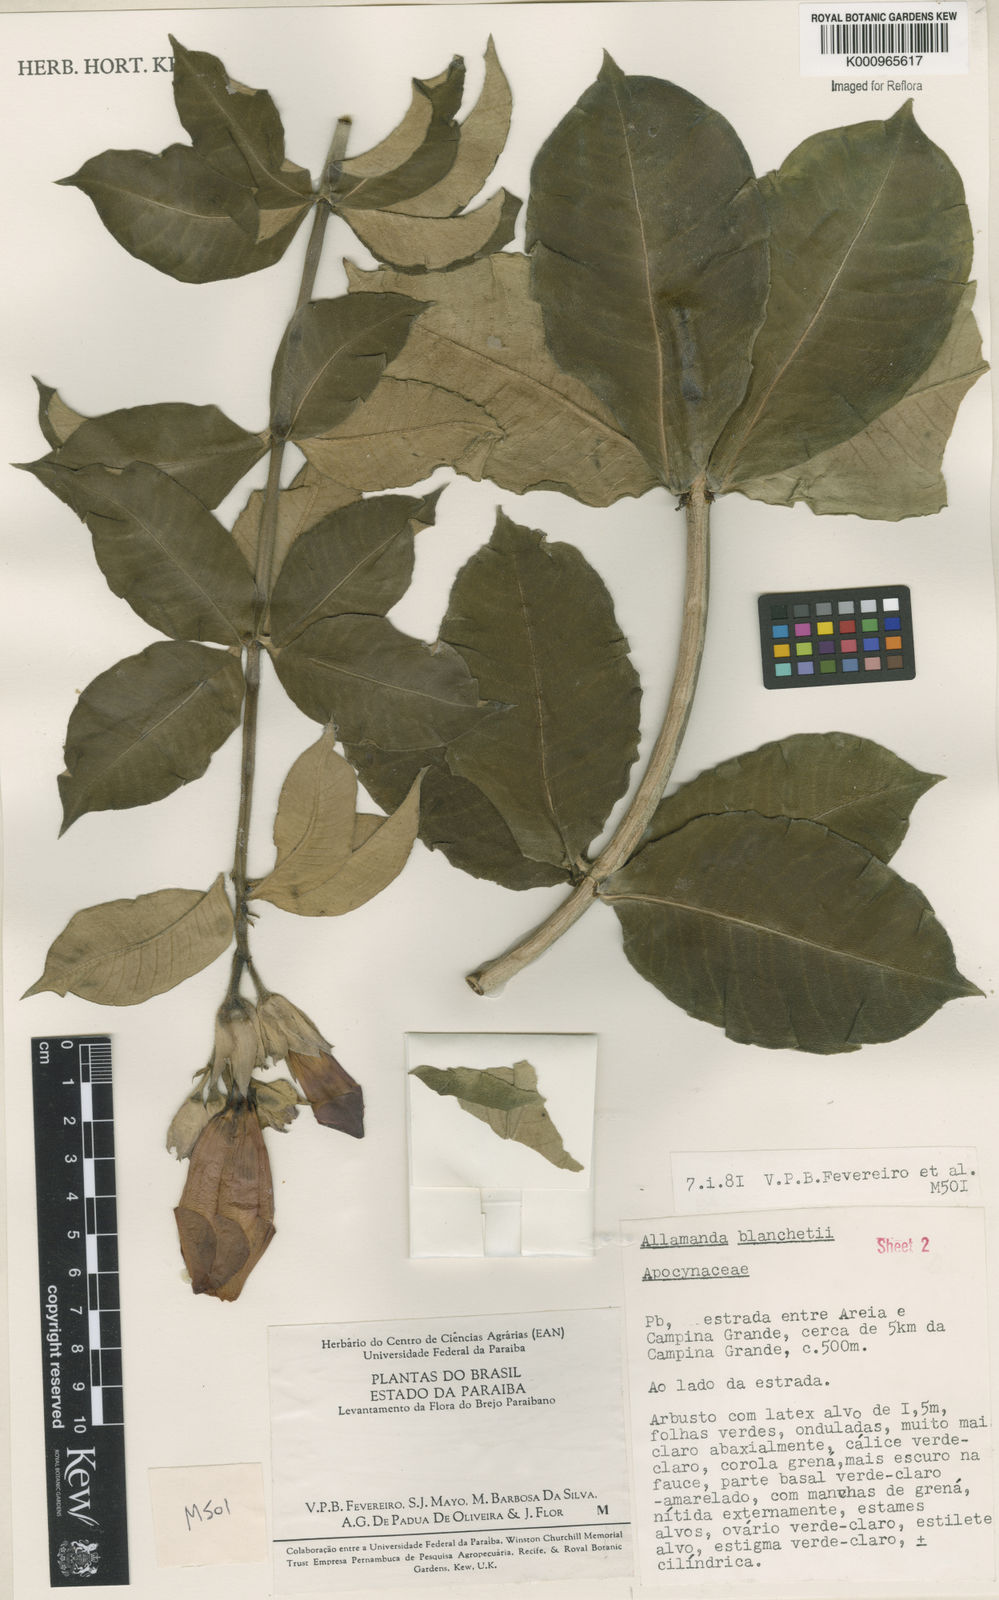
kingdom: Plantae
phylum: Tracheophyta
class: Magnoliopsida
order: Gentianales
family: Apocynaceae
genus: Allamanda
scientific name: Allamanda blanchetii
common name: Purple allamanda
